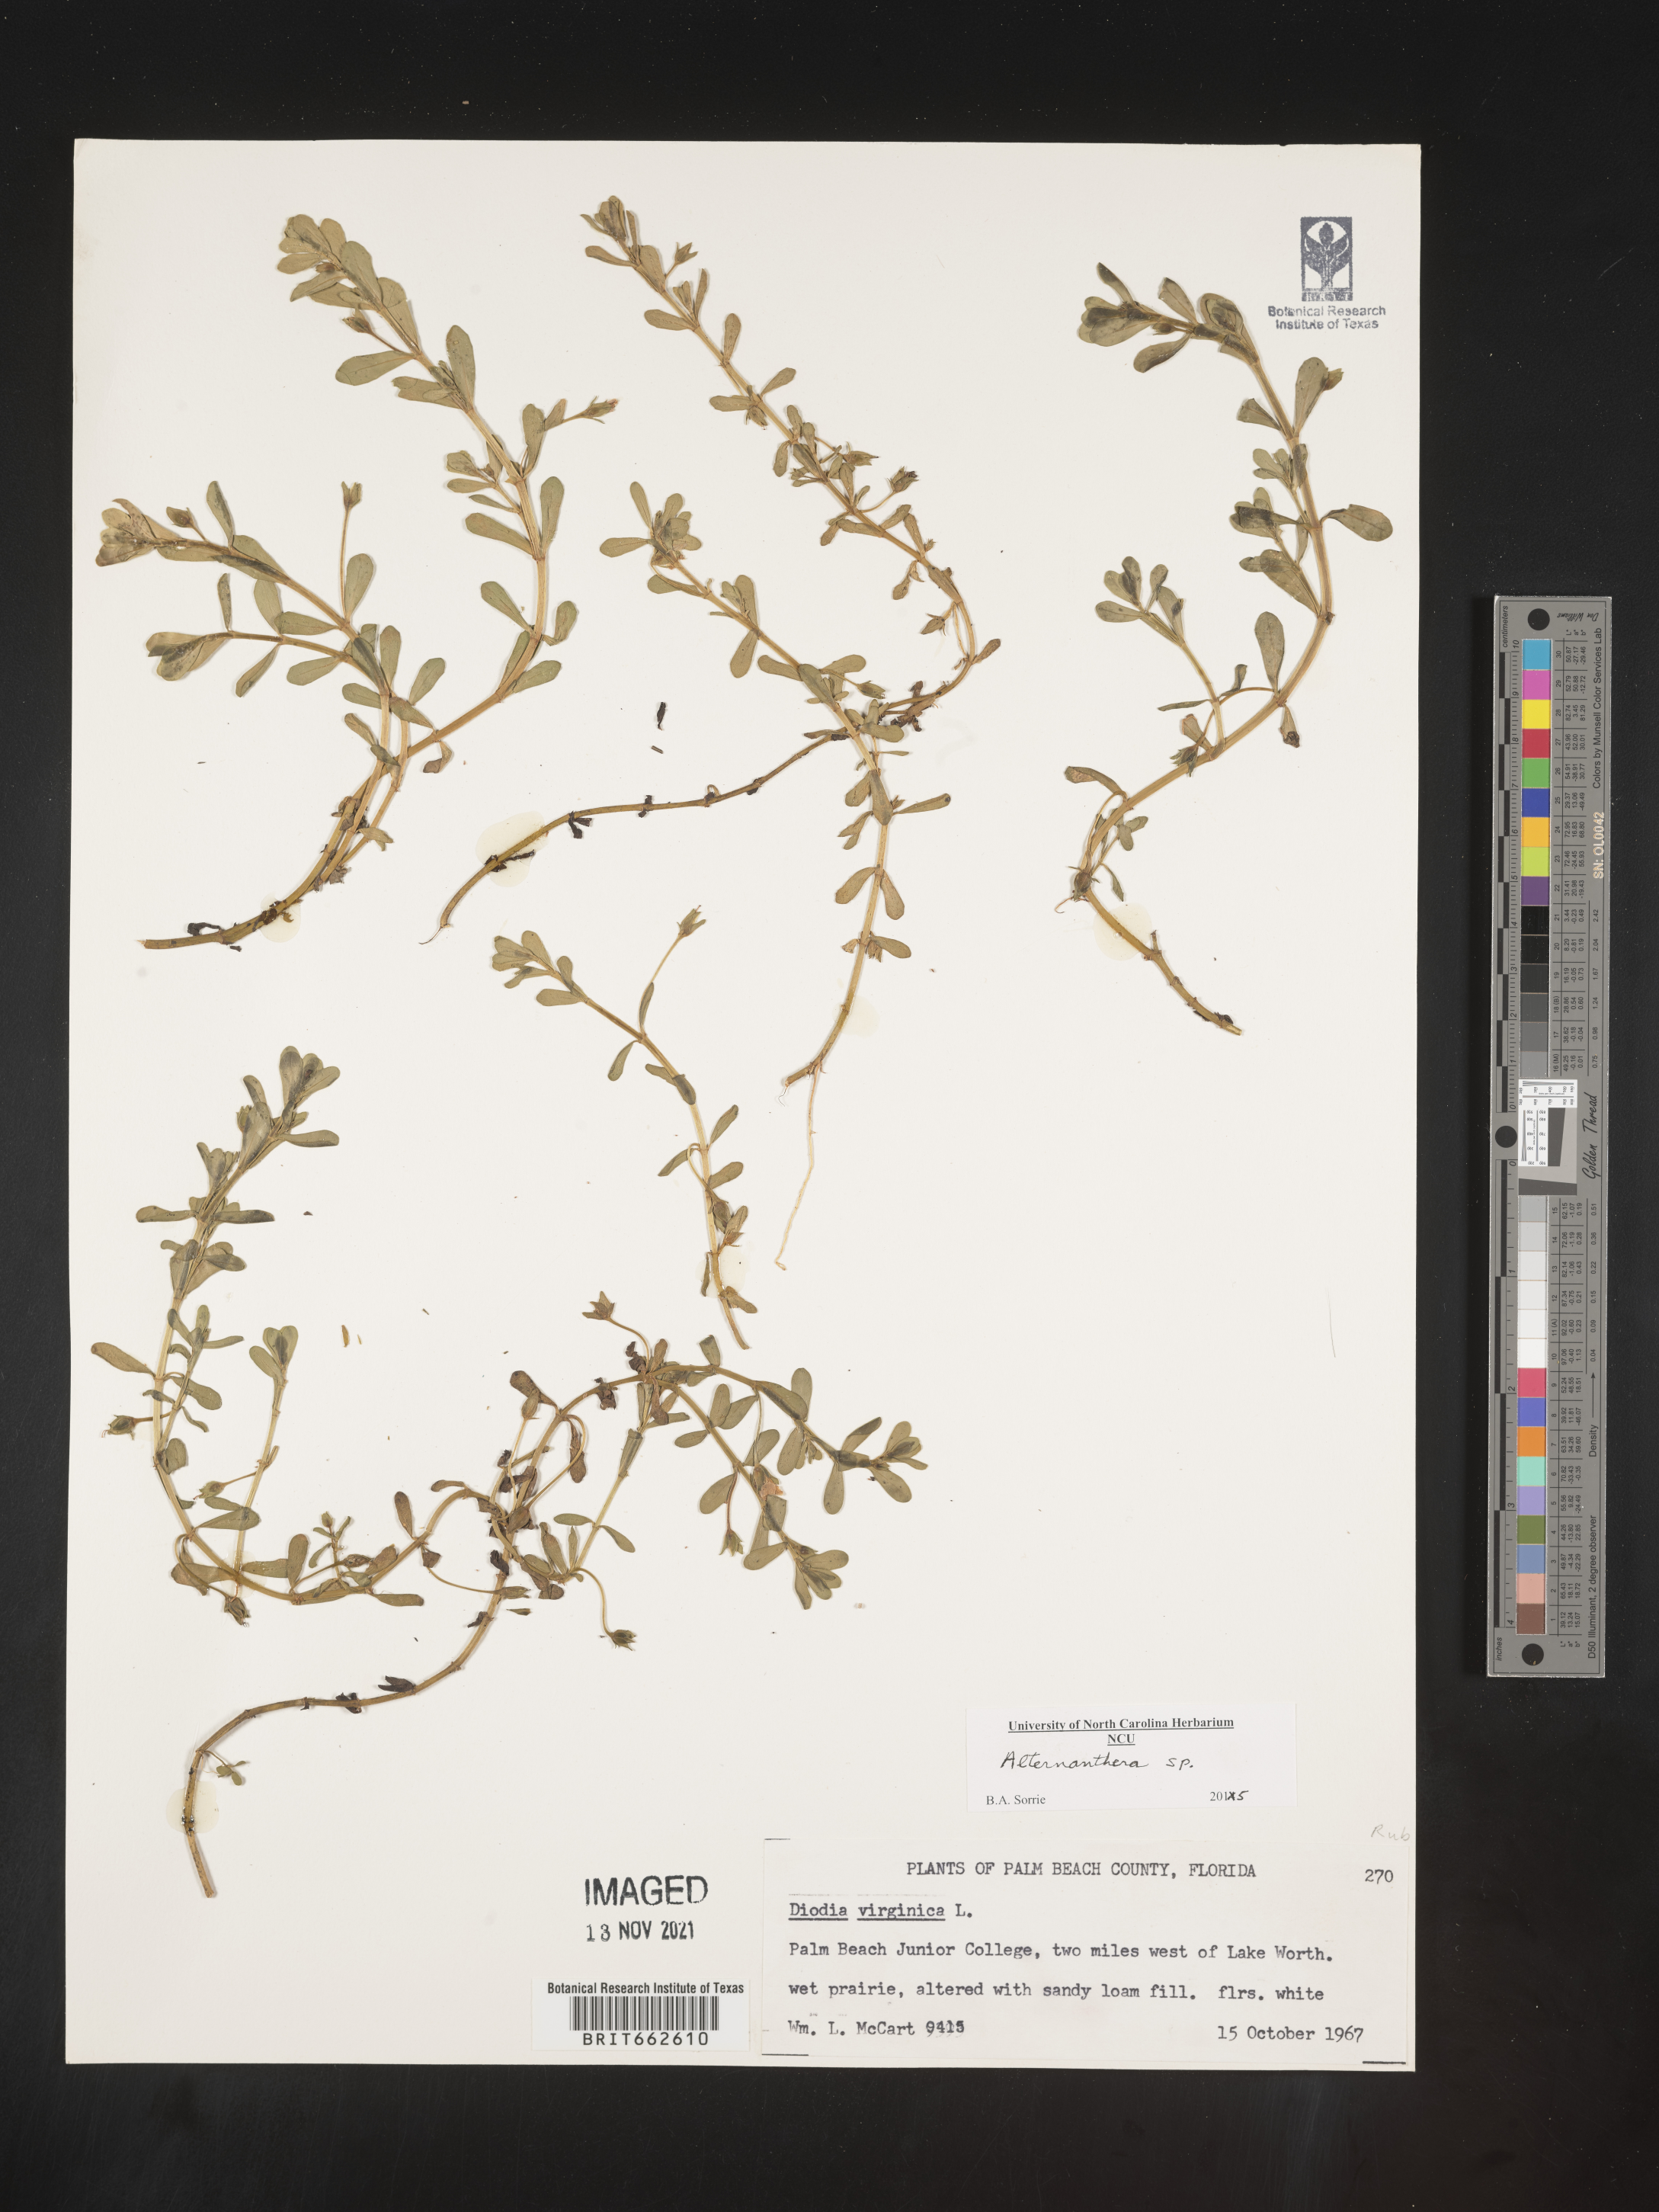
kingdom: Plantae
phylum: Tracheophyta
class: Magnoliopsida
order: Caryophyllales
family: Amaranthaceae
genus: Alternanthera
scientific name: Alternanthera
